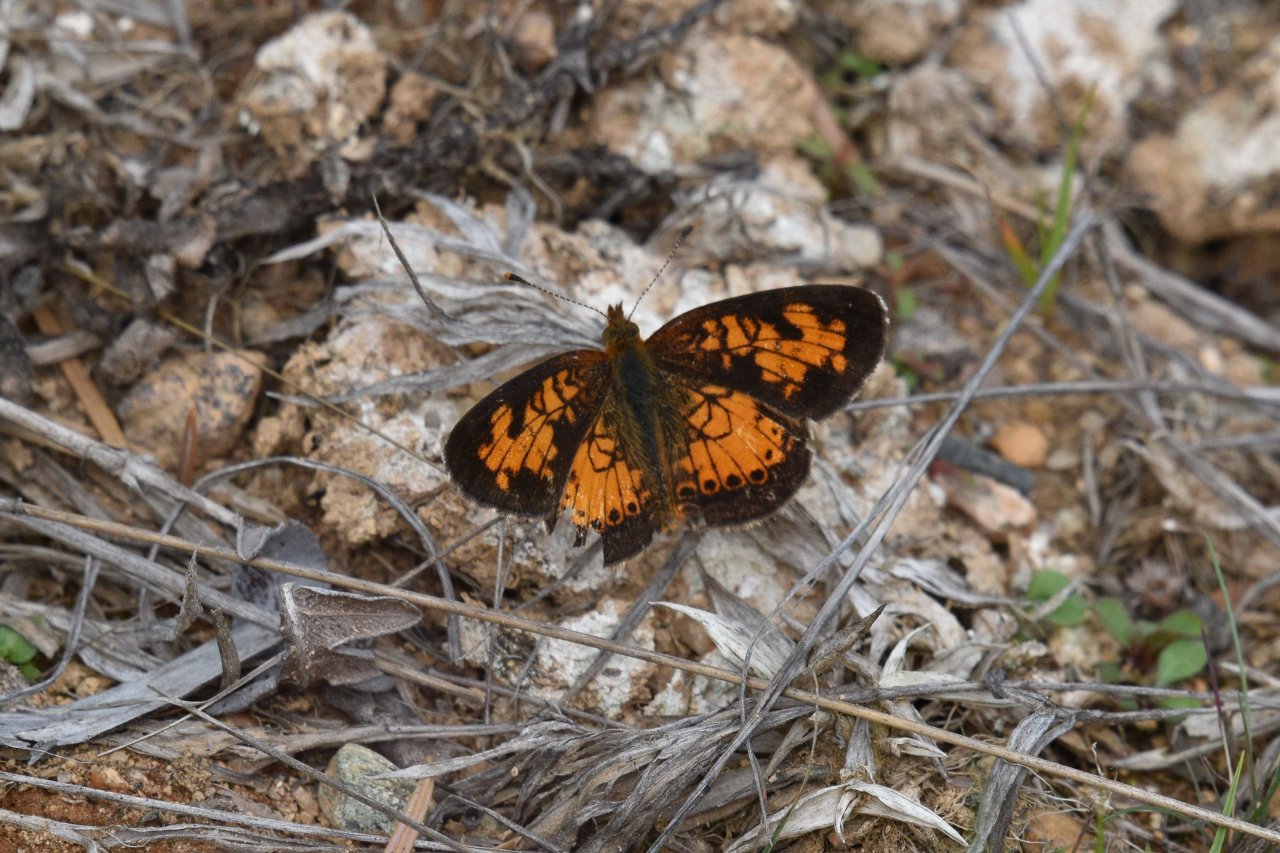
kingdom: Animalia
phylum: Arthropoda
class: Insecta
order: Lepidoptera
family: Nymphalidae
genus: Phyciodes
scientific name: Phyciodes tharos
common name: Northern Crescent
